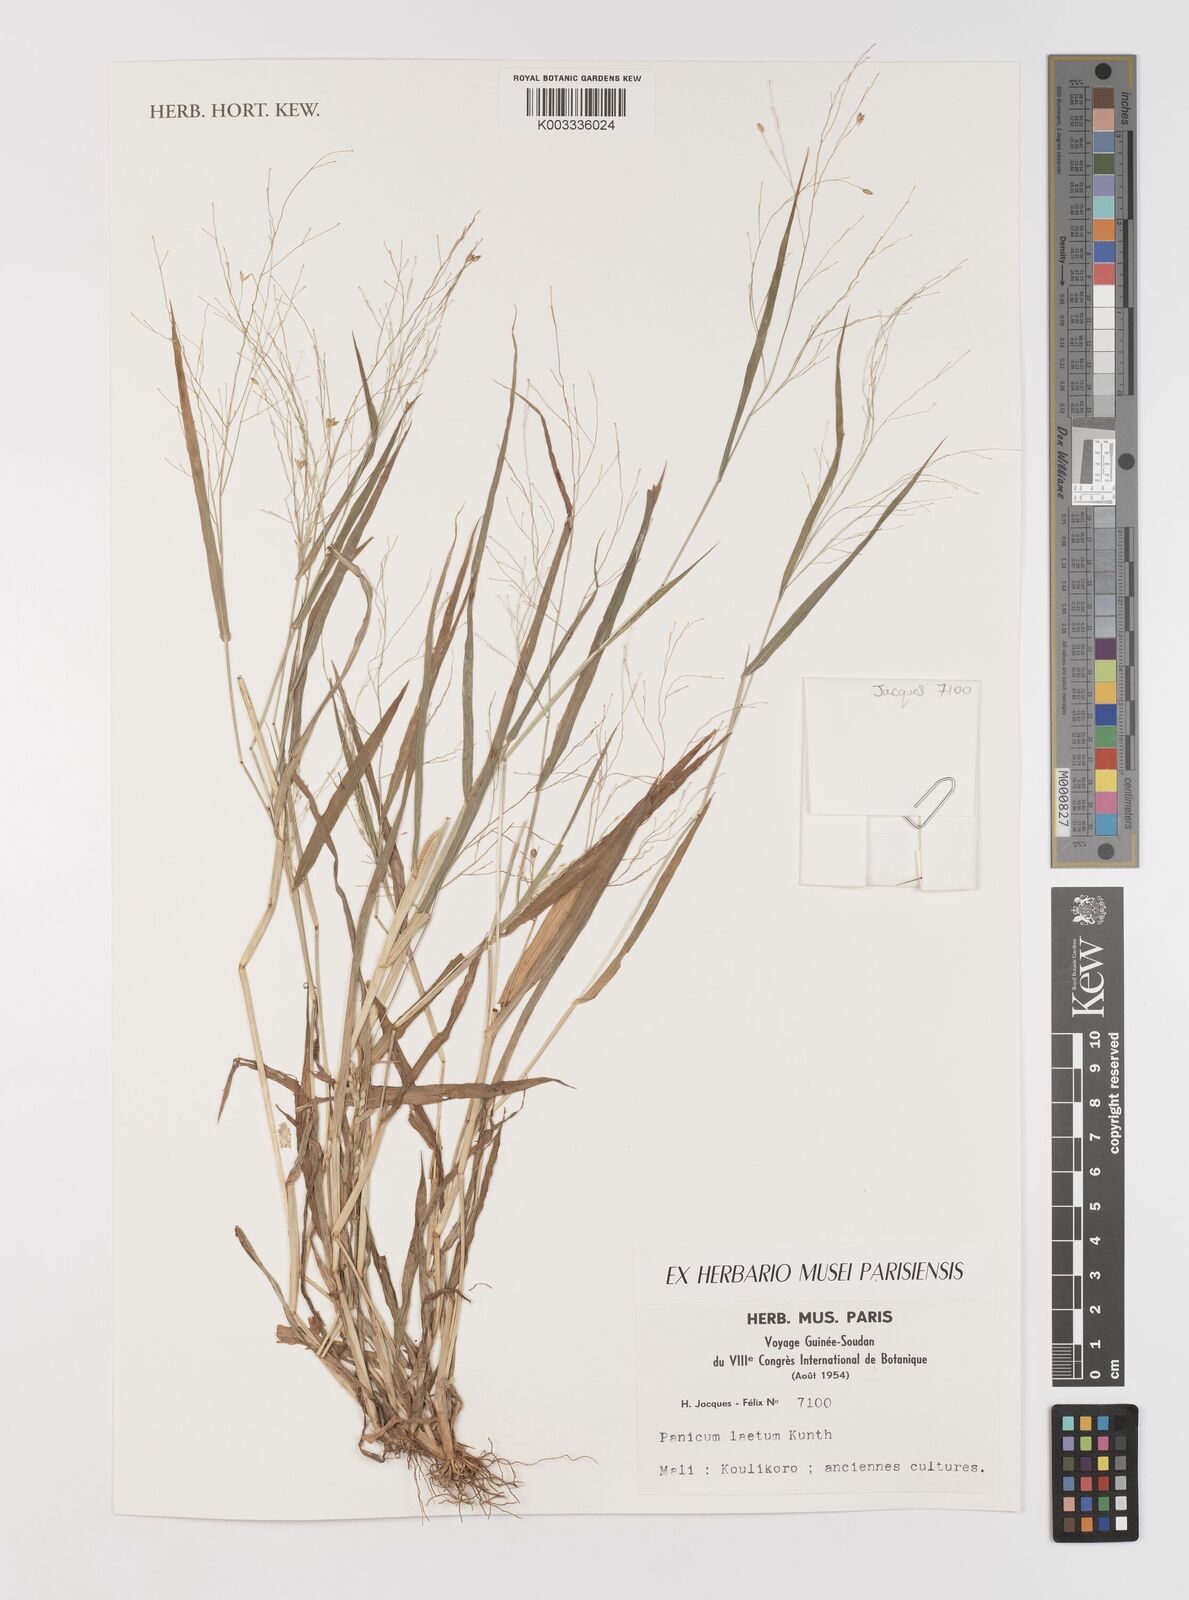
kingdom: Plantae
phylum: Tracheophyta
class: Liliopsida
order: Poales
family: Poaceae
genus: Panicum
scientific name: Panicum laetum
